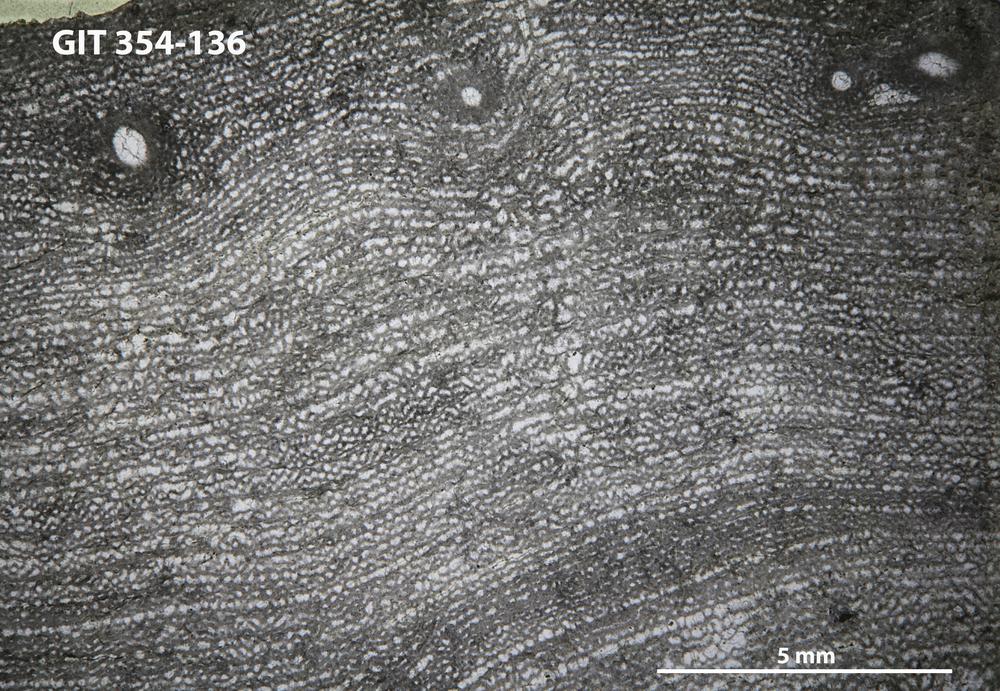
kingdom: Animalia
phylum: Porifera
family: Clathrodictyidae
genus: Clathrodictyon
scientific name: Clathrodictyon boreale
